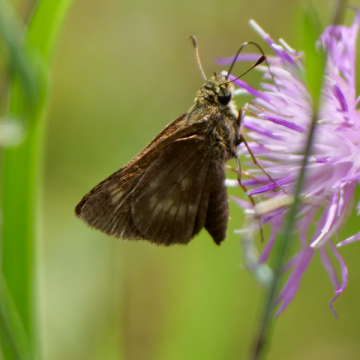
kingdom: Animalia
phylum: Arthropoda
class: Insecta
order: Lepidoptera
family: Hesperiidae
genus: Polites
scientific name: Polites egeremet
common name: Northern Broken-Dash
